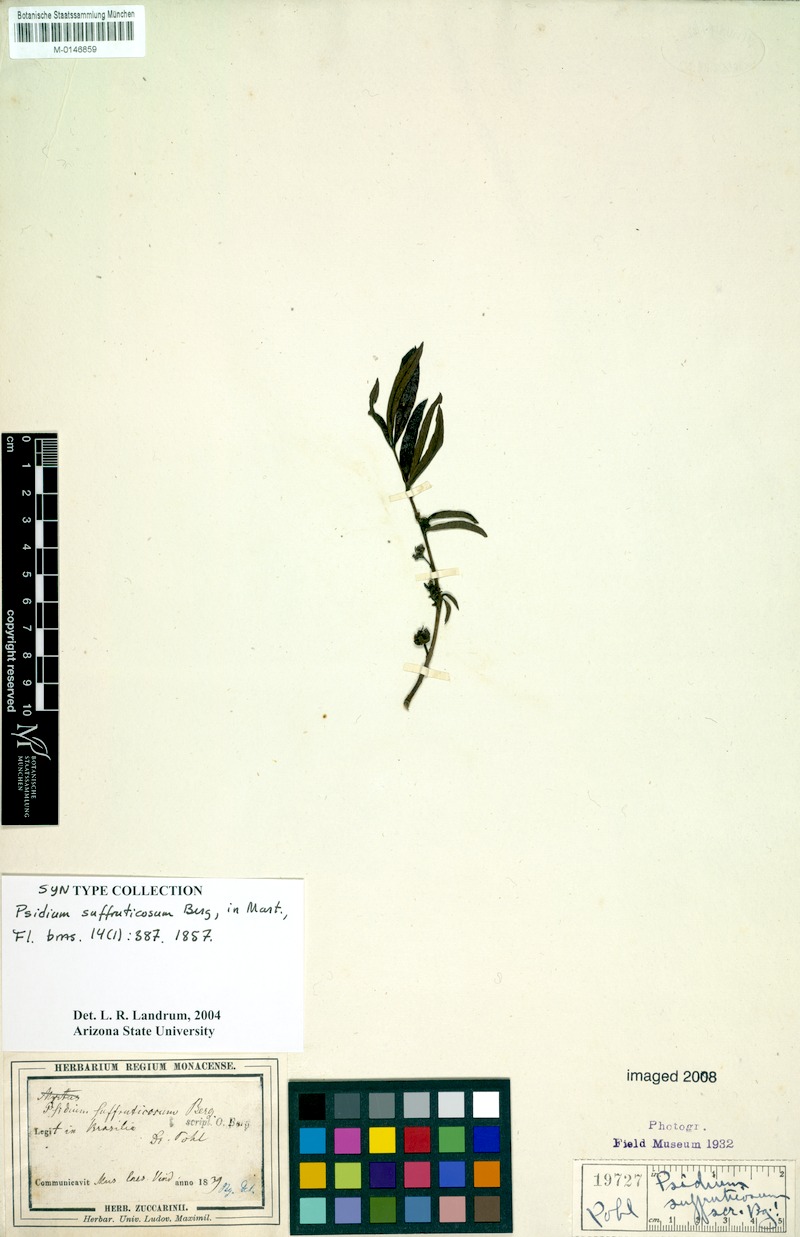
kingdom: Plantae
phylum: Tracheophyta
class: Magnoliopsida
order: Myrtales
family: Myrtaceae
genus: Psidium
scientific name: Psidium australe
